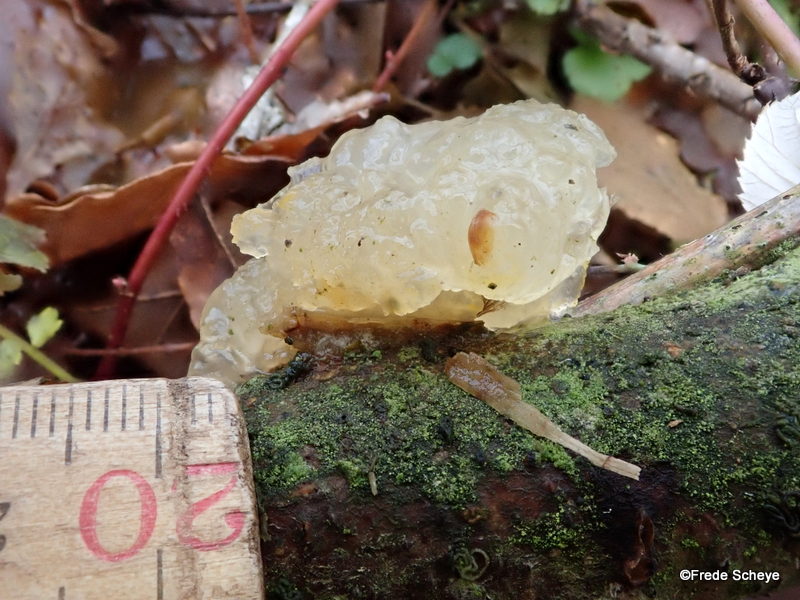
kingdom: Fungi
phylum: Basidiomycota
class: Tremellomycetes
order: Tremellales
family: Tremellaceae
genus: Tremella
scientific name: Tremella mesenterica
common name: gul bævresvamp
